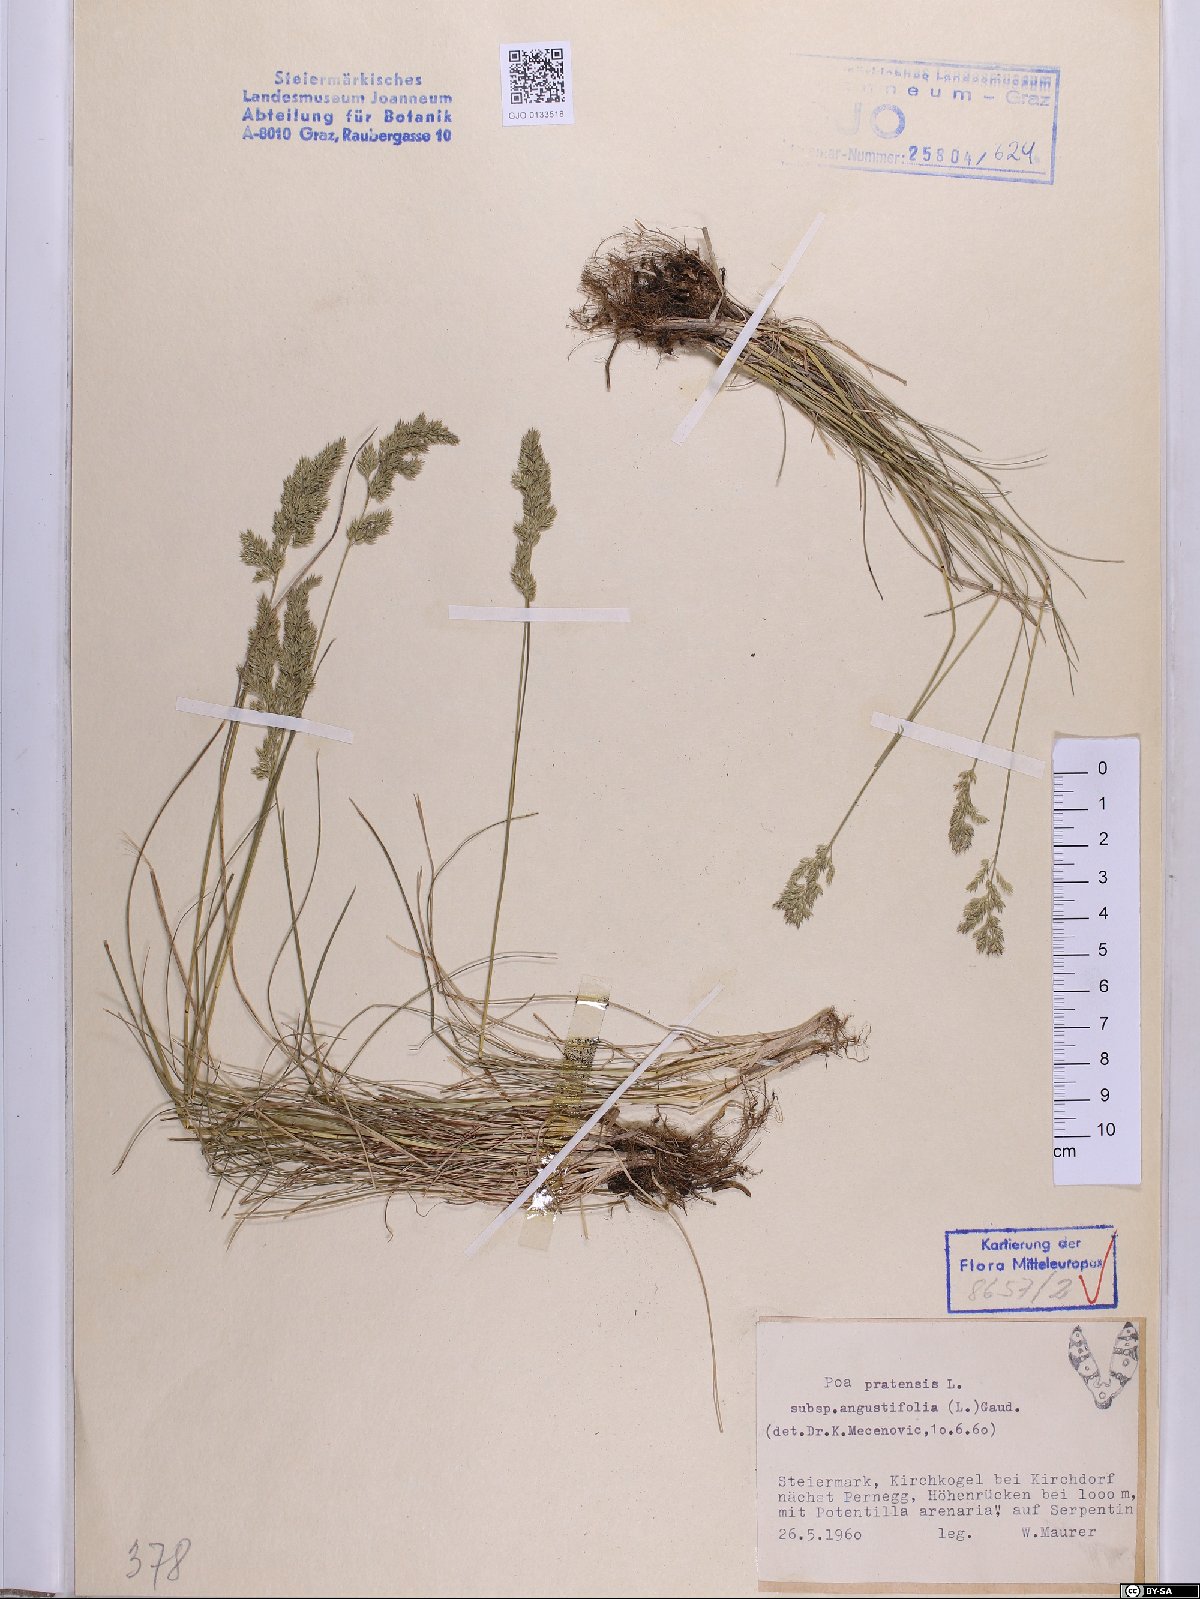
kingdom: Plantae
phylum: Tracheophyta
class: Liliopsida
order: Poales
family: Poaceae
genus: Poa
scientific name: Poa angustifolia
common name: Narrow-leaved meadow-grass
